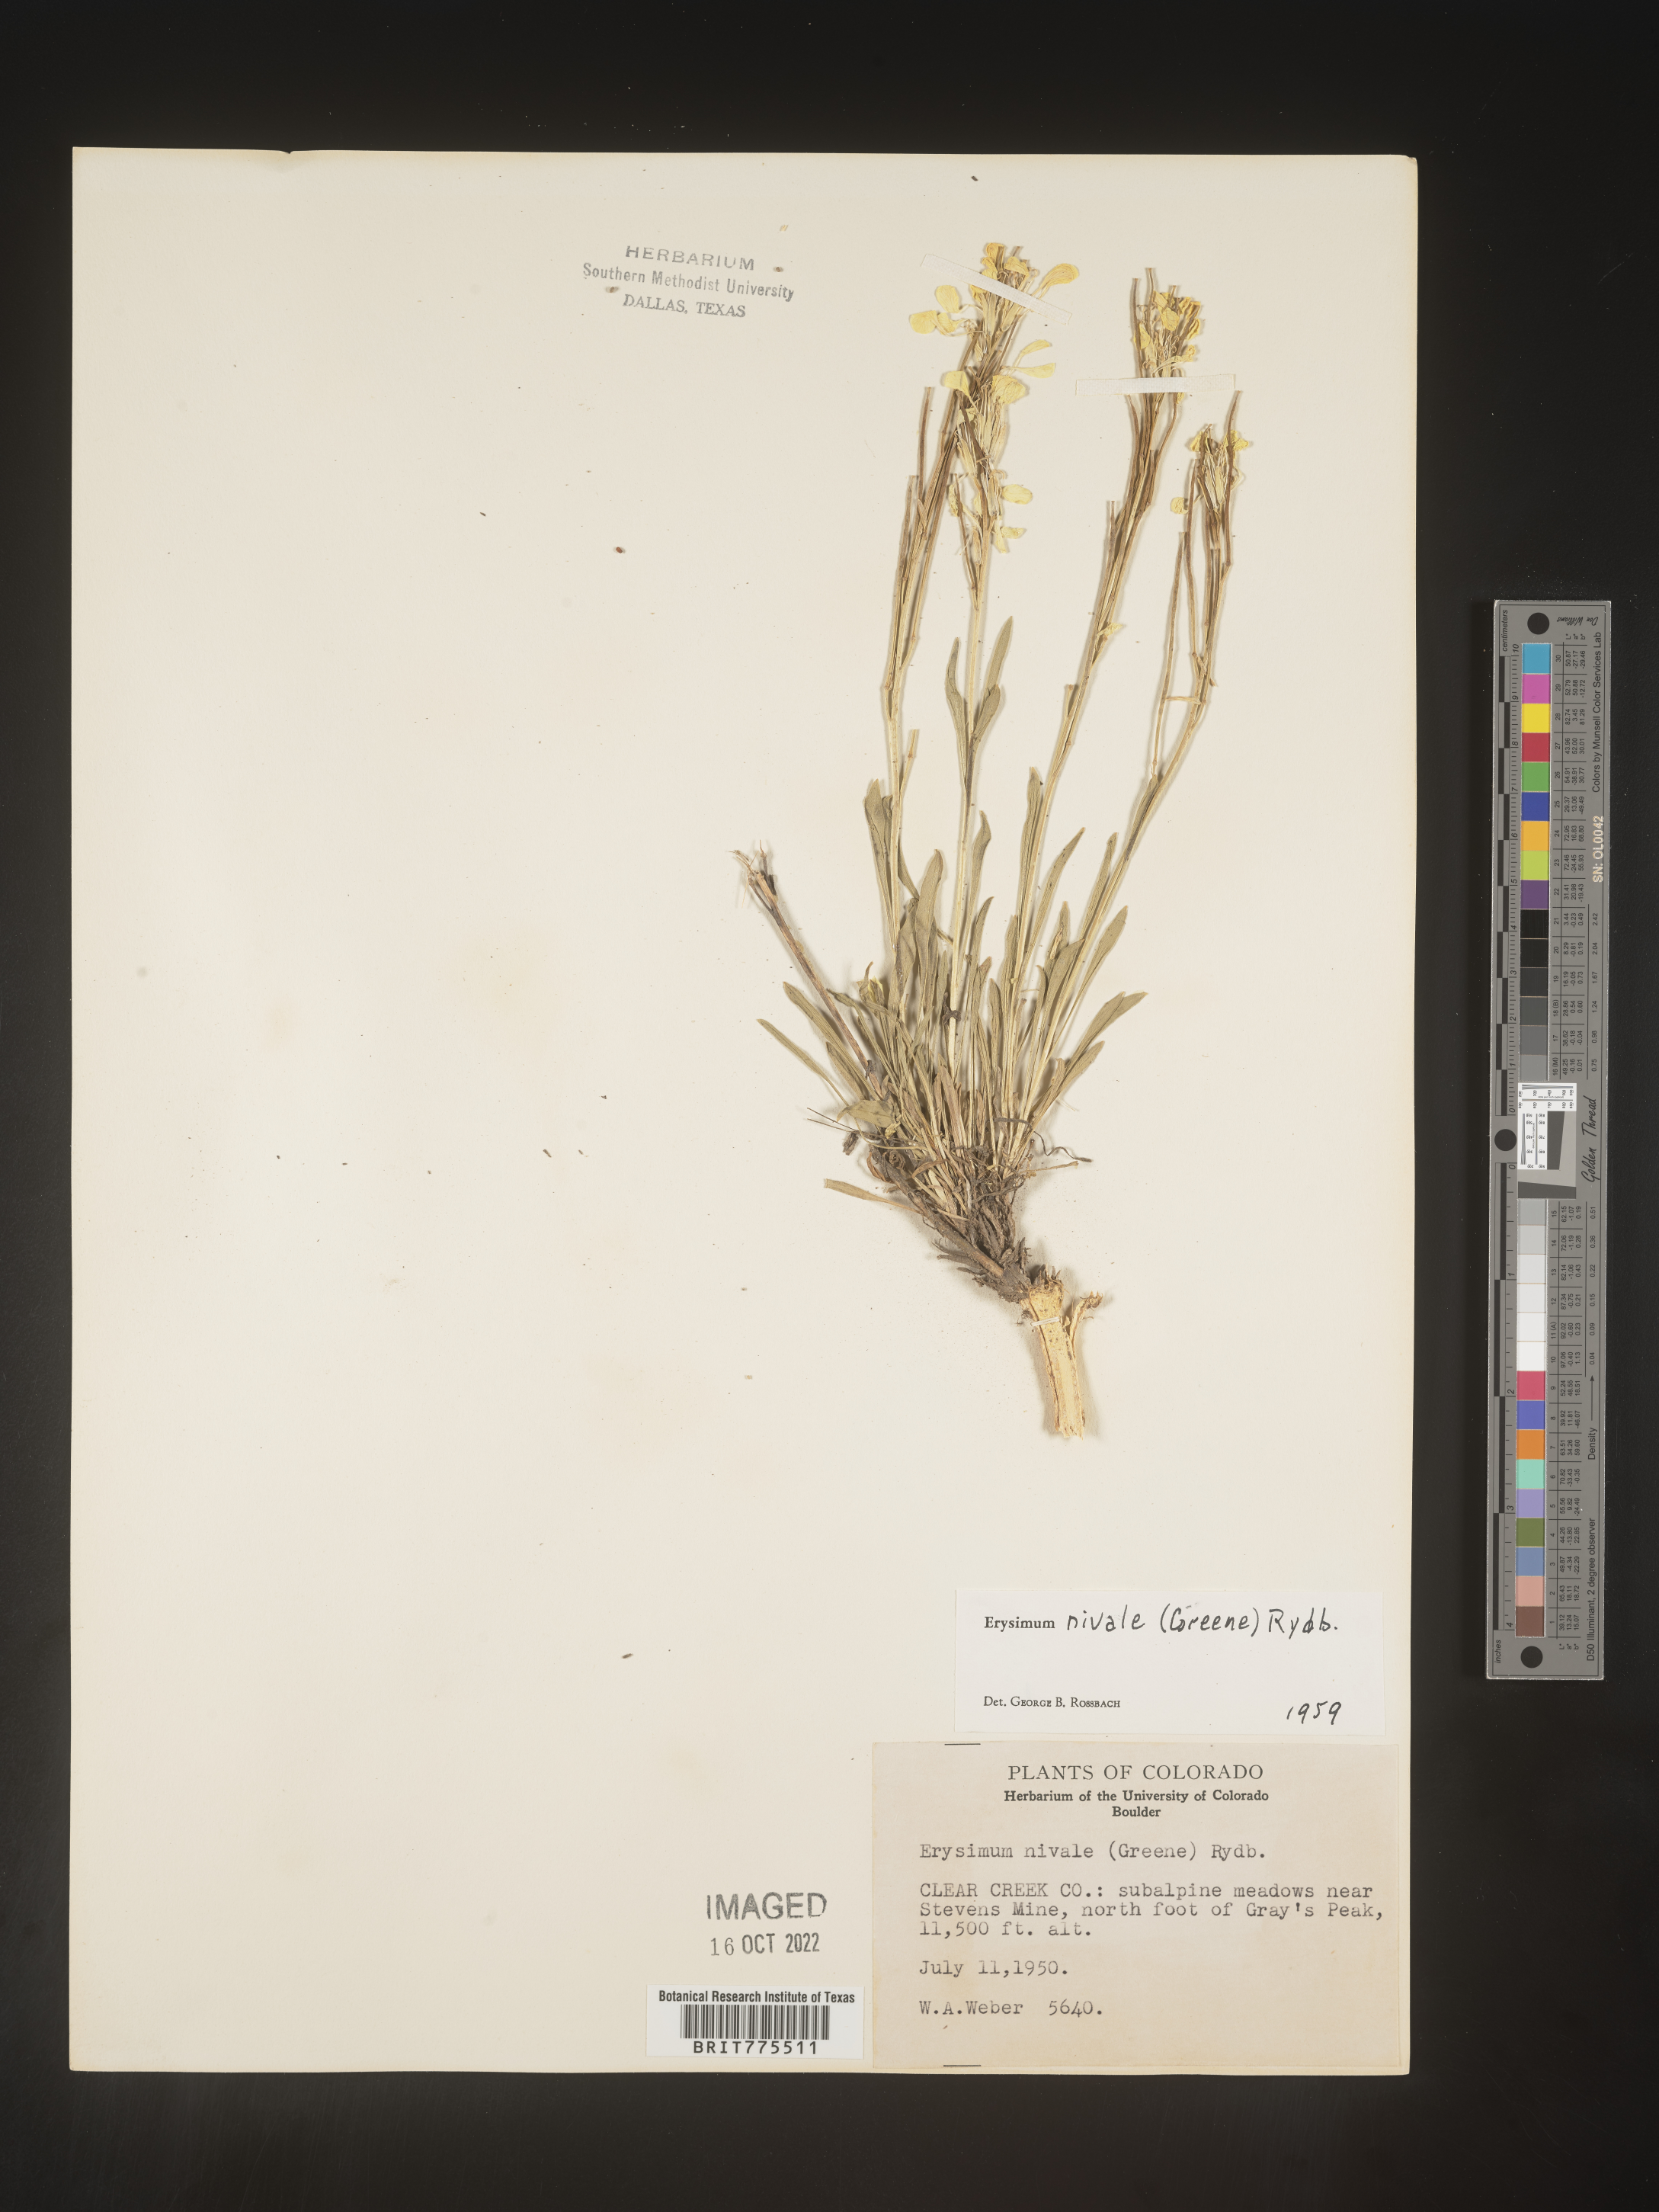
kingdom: Plantae
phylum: Tracheophyta
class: Magnoliopsida
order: Brassicales
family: Brassicaceae
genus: Erysimum
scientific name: Erysimum
